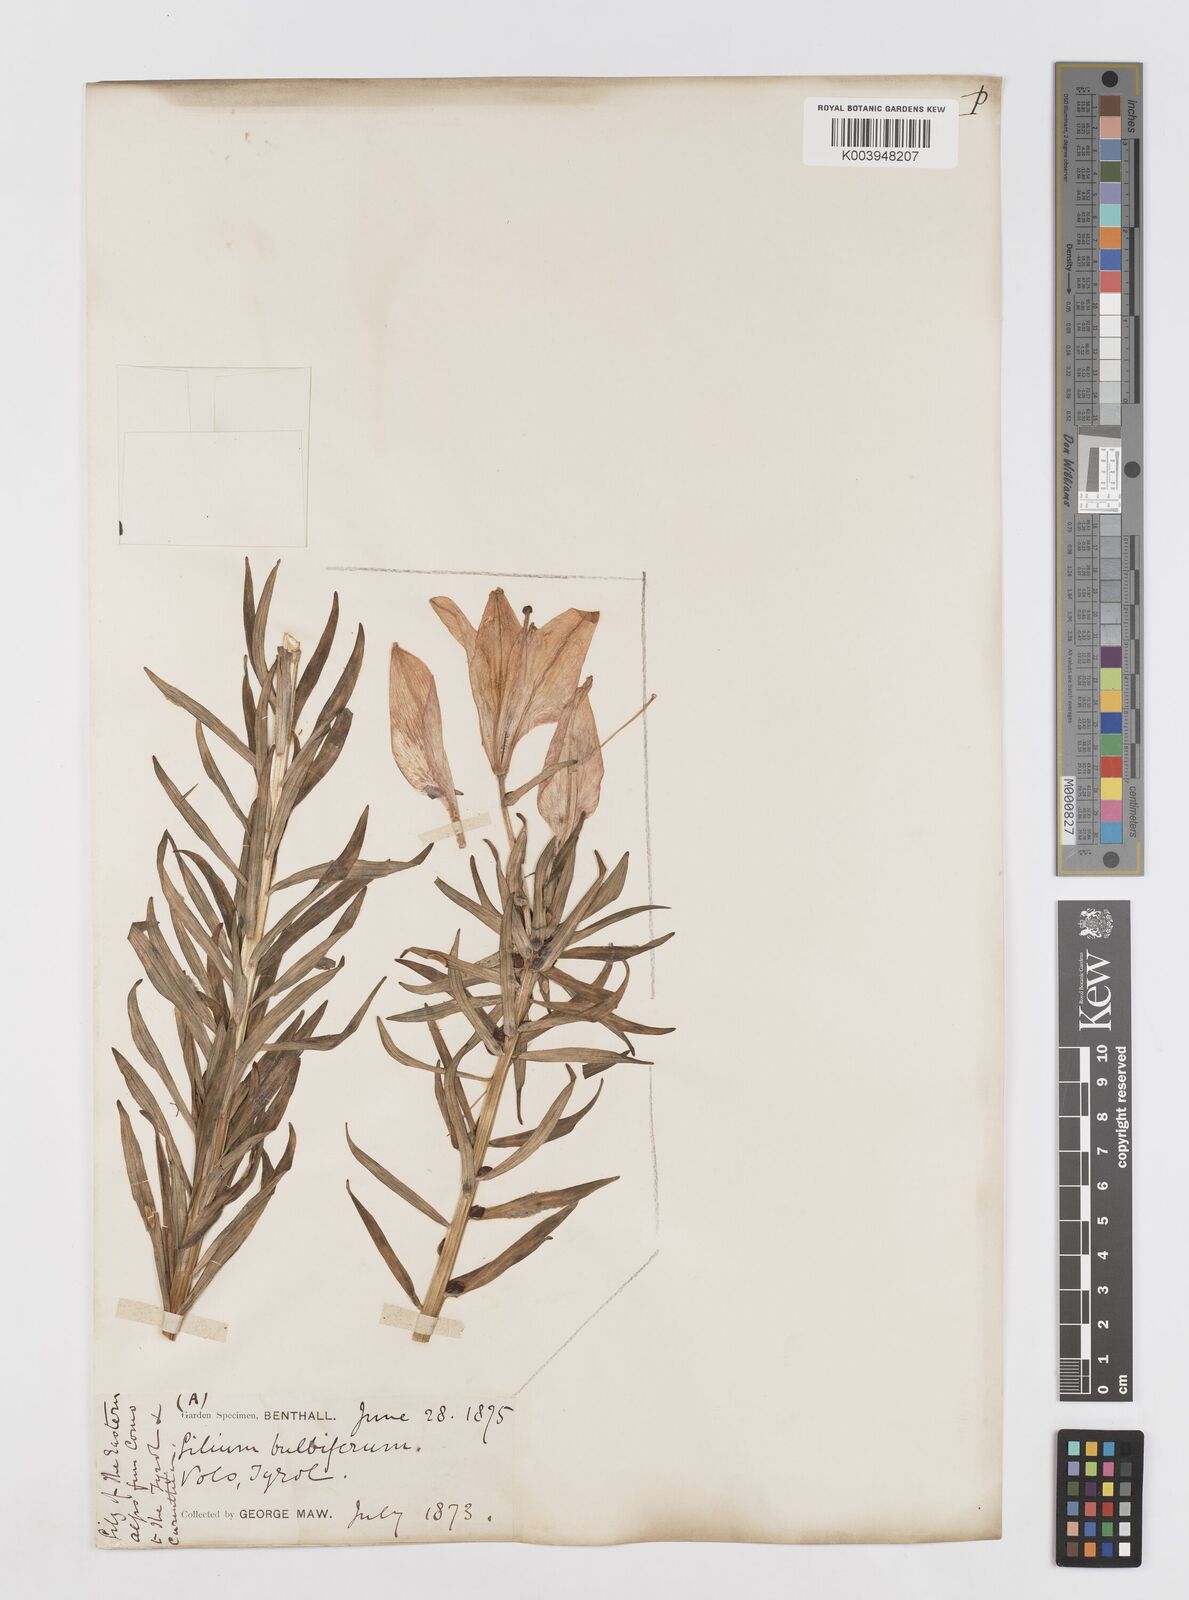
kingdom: Plantae
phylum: Tracheophyta
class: Liliopsida
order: Liliales
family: Liliaceae
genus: Lilium
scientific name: Lilium bulbiferum
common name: Orange lily
